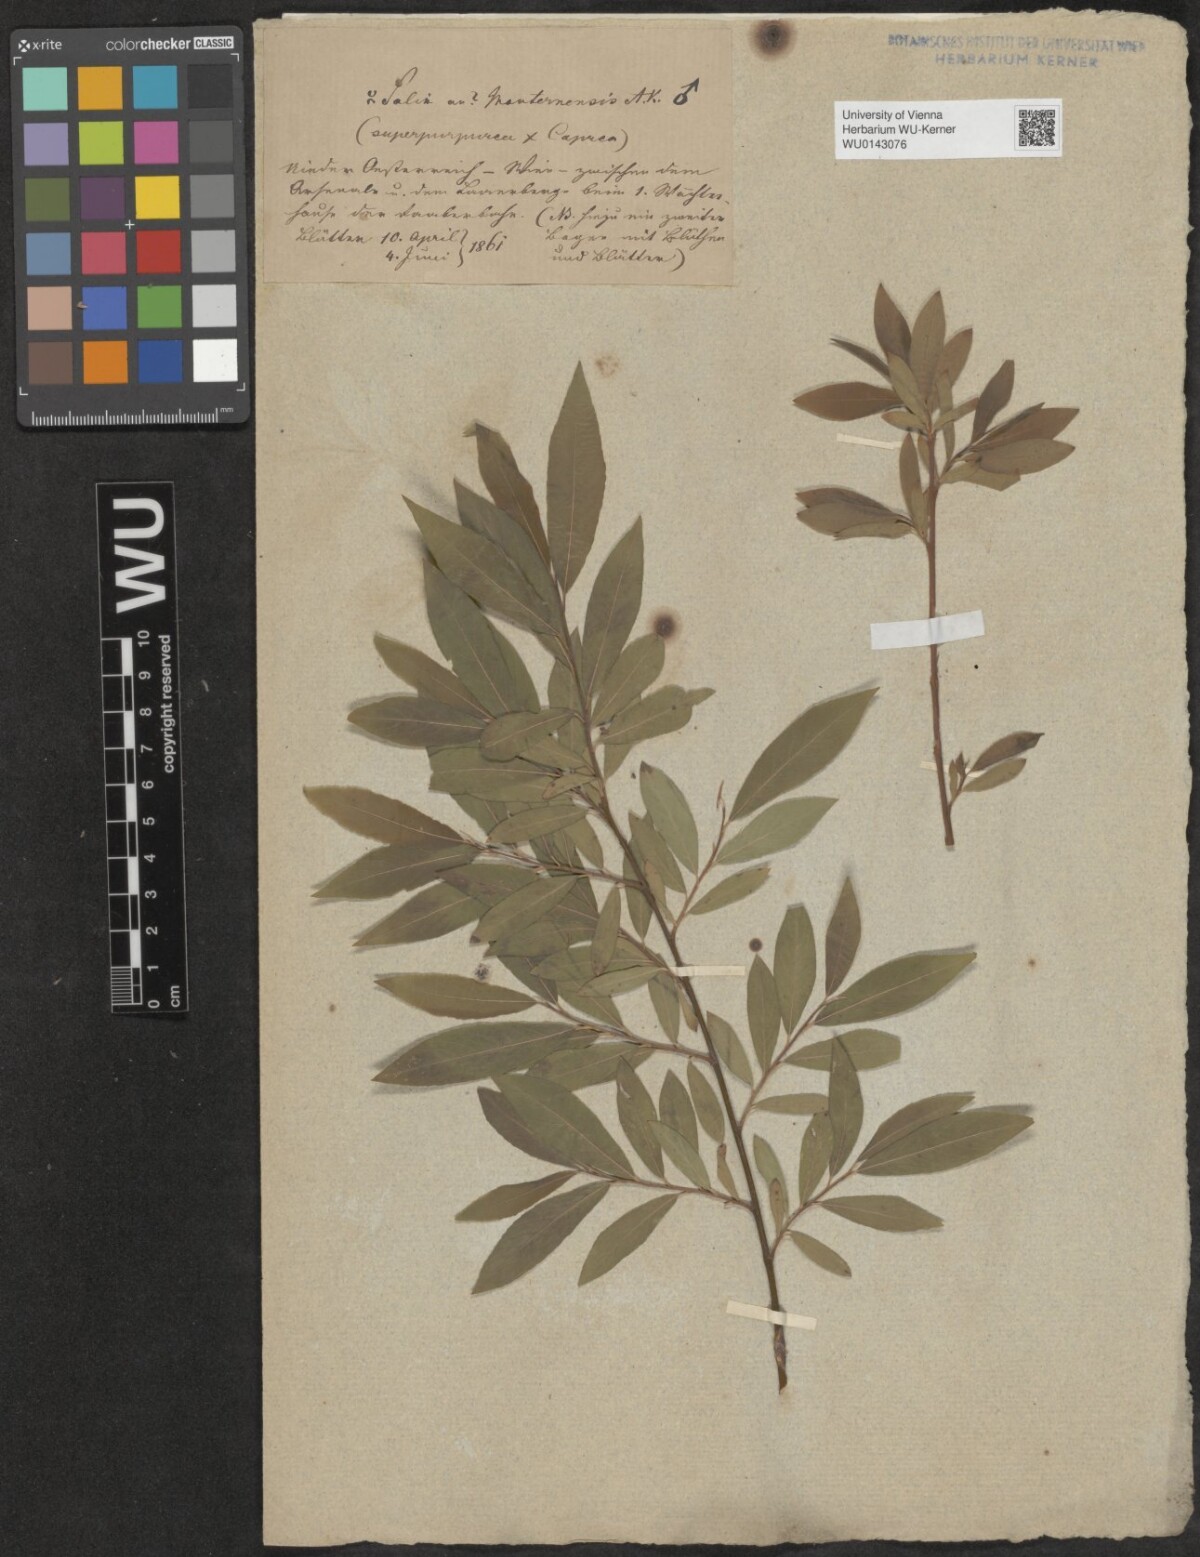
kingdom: Plantae
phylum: Tracheophyta
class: Magnoliopsida
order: Malpighiales
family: Salicaceae
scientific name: Salicaceae
